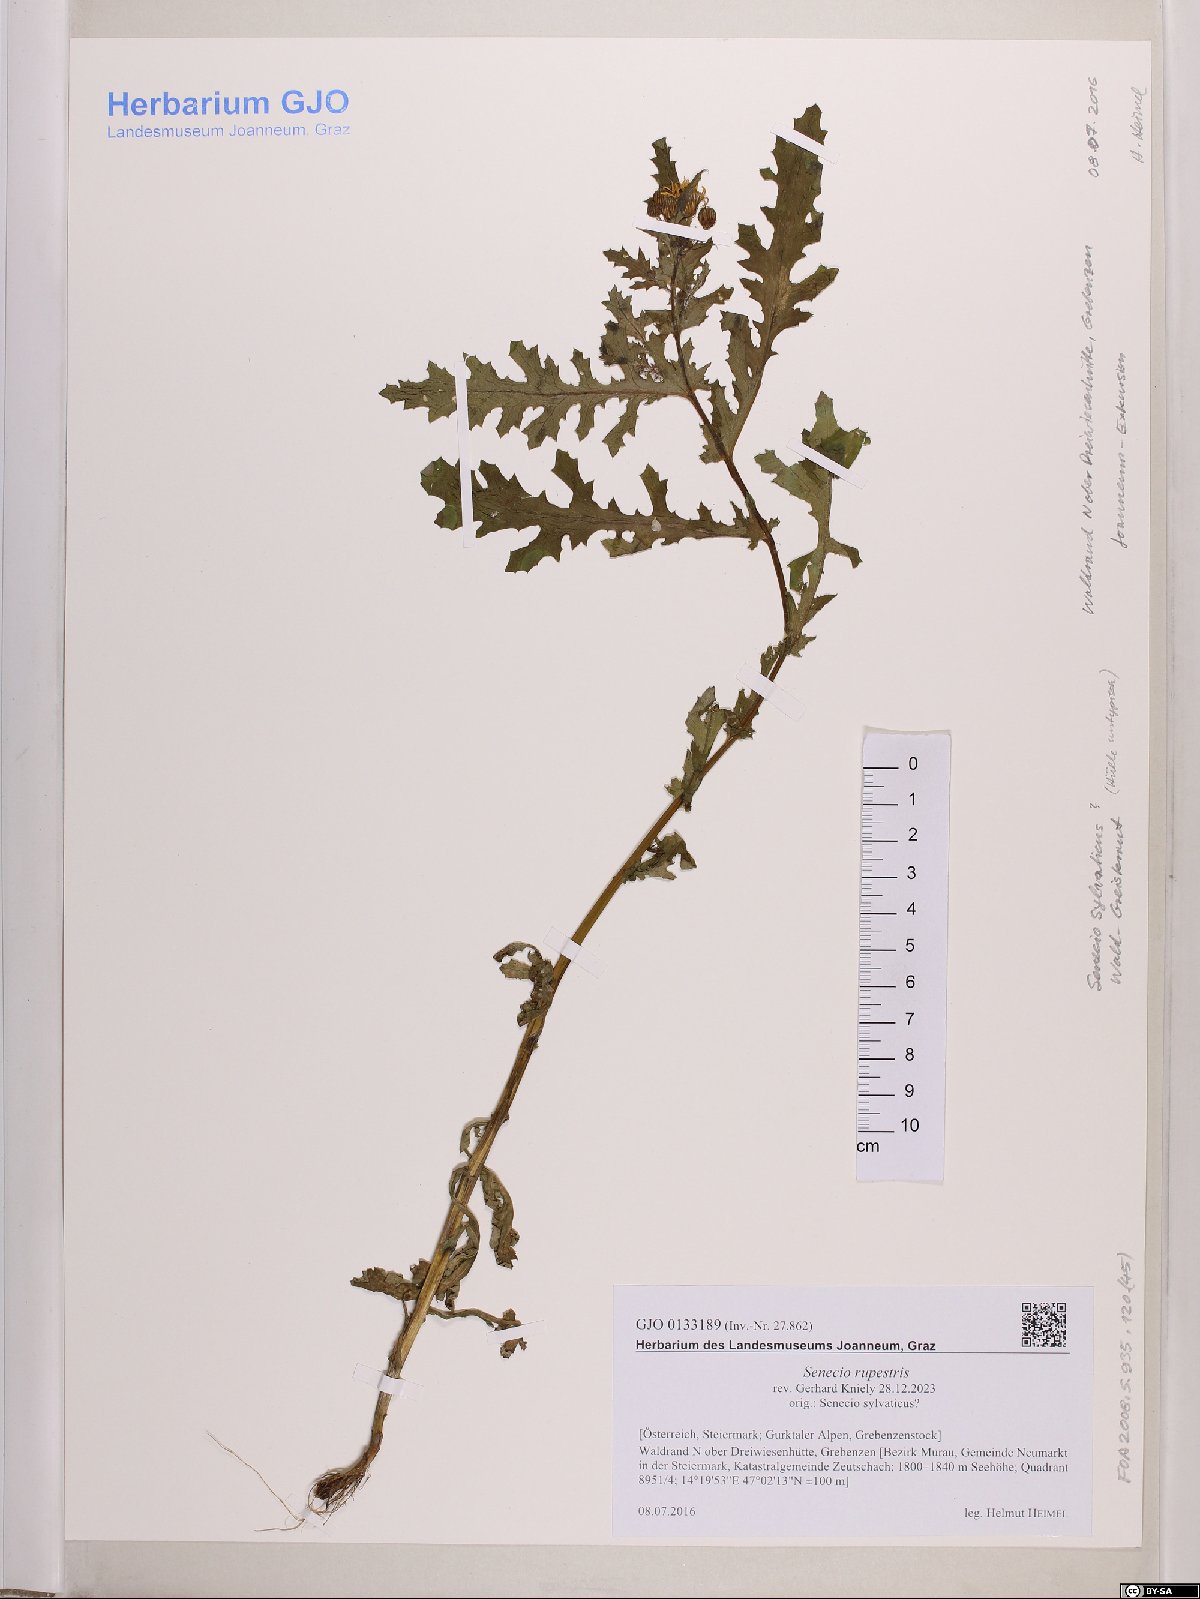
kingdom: Plantae
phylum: Tracheophyta
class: Magnoliopsida
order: Asterales
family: Asteraceae
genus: Senecio
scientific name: Senecio rupestris
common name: Rock ragwort
